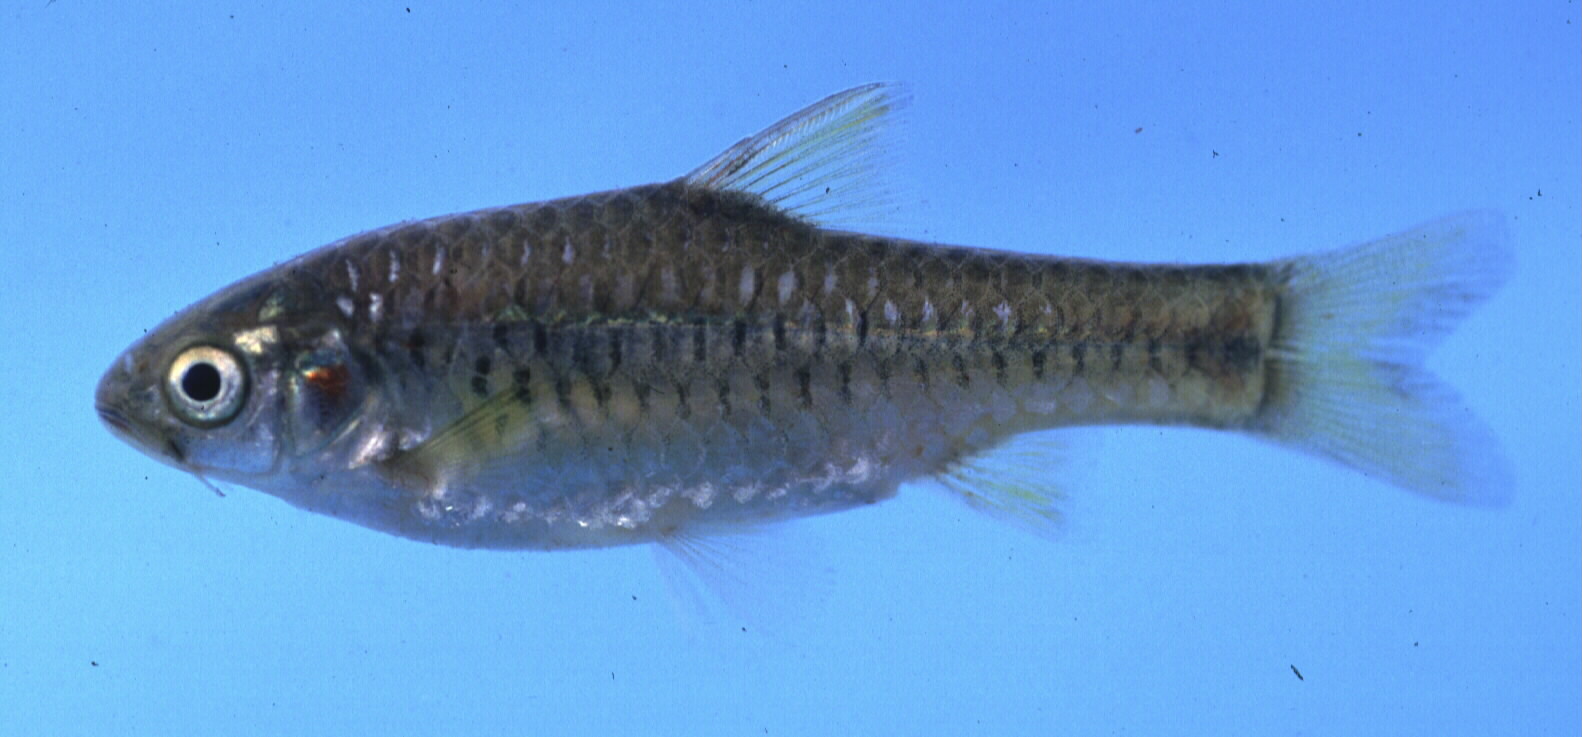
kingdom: Animalia
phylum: Chordata
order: Cypriniformes
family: Cyprinidae
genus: Enteromius
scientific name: Enteromius kerstenii
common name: Redspot barb
